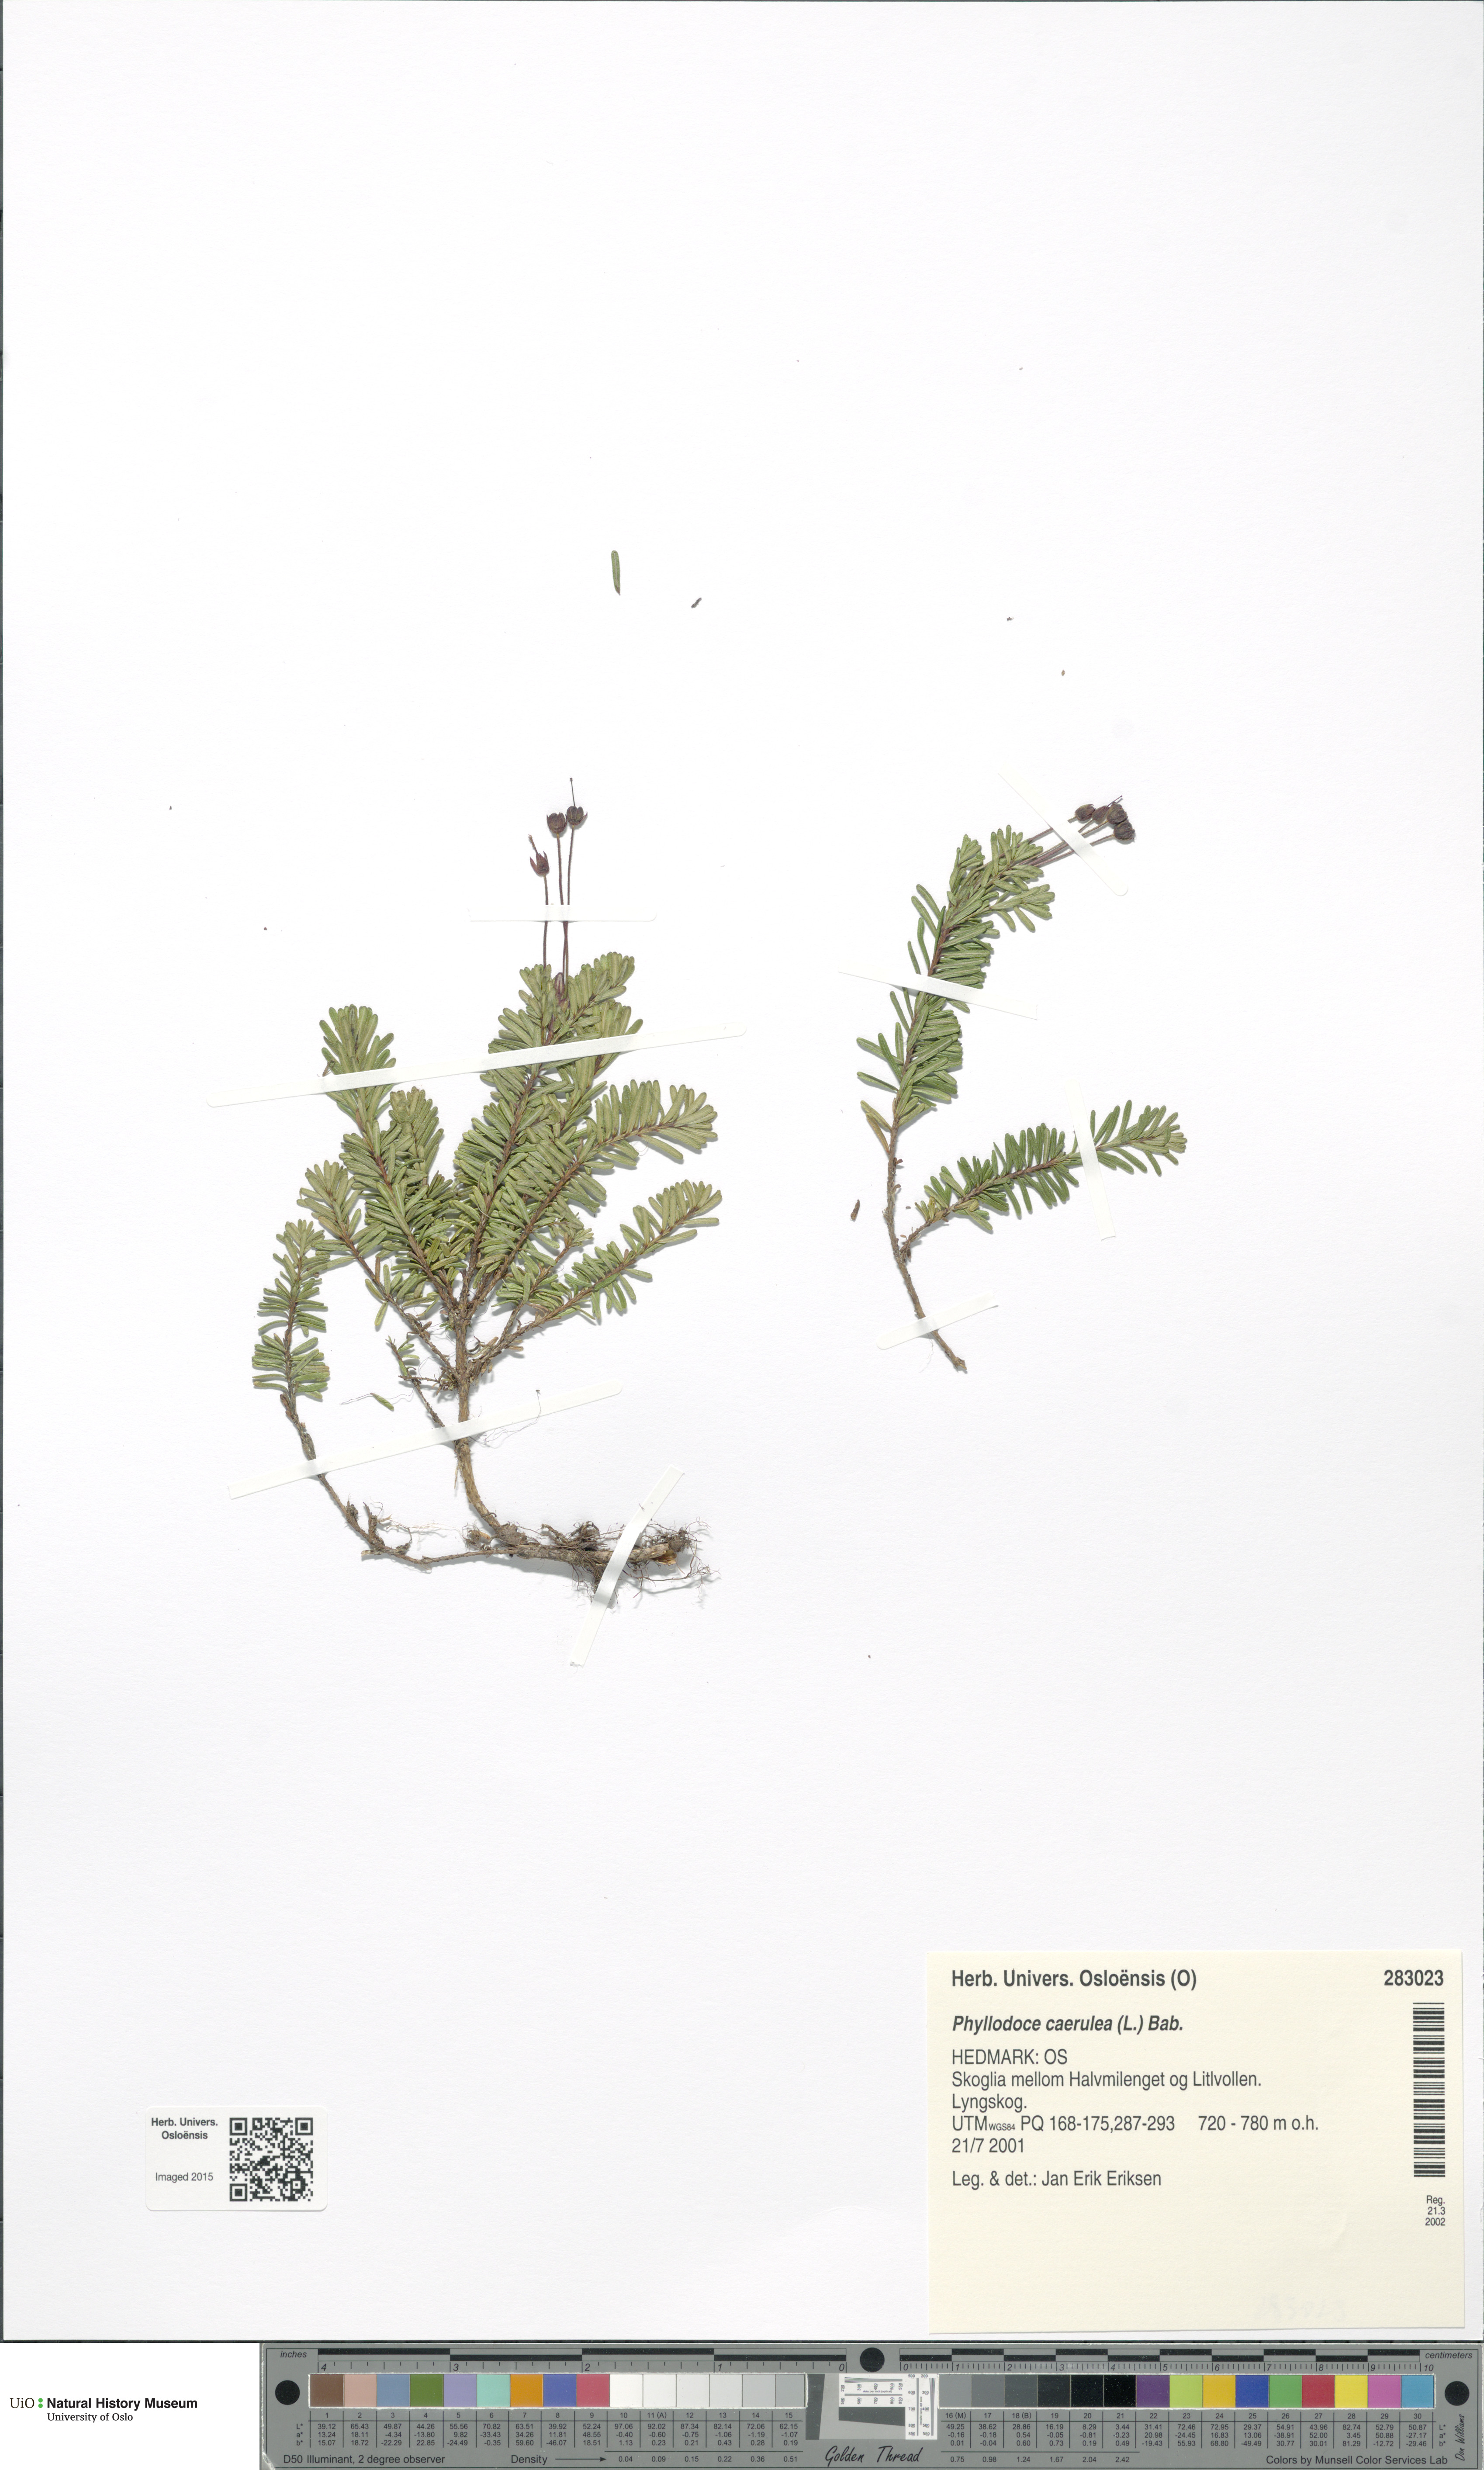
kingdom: Plantae
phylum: Tracheophyta
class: Magnoliopsida
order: Ericales
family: Ericaceae
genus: Phyllodoce
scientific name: Phyllodoce caerulea
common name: Blue heath
